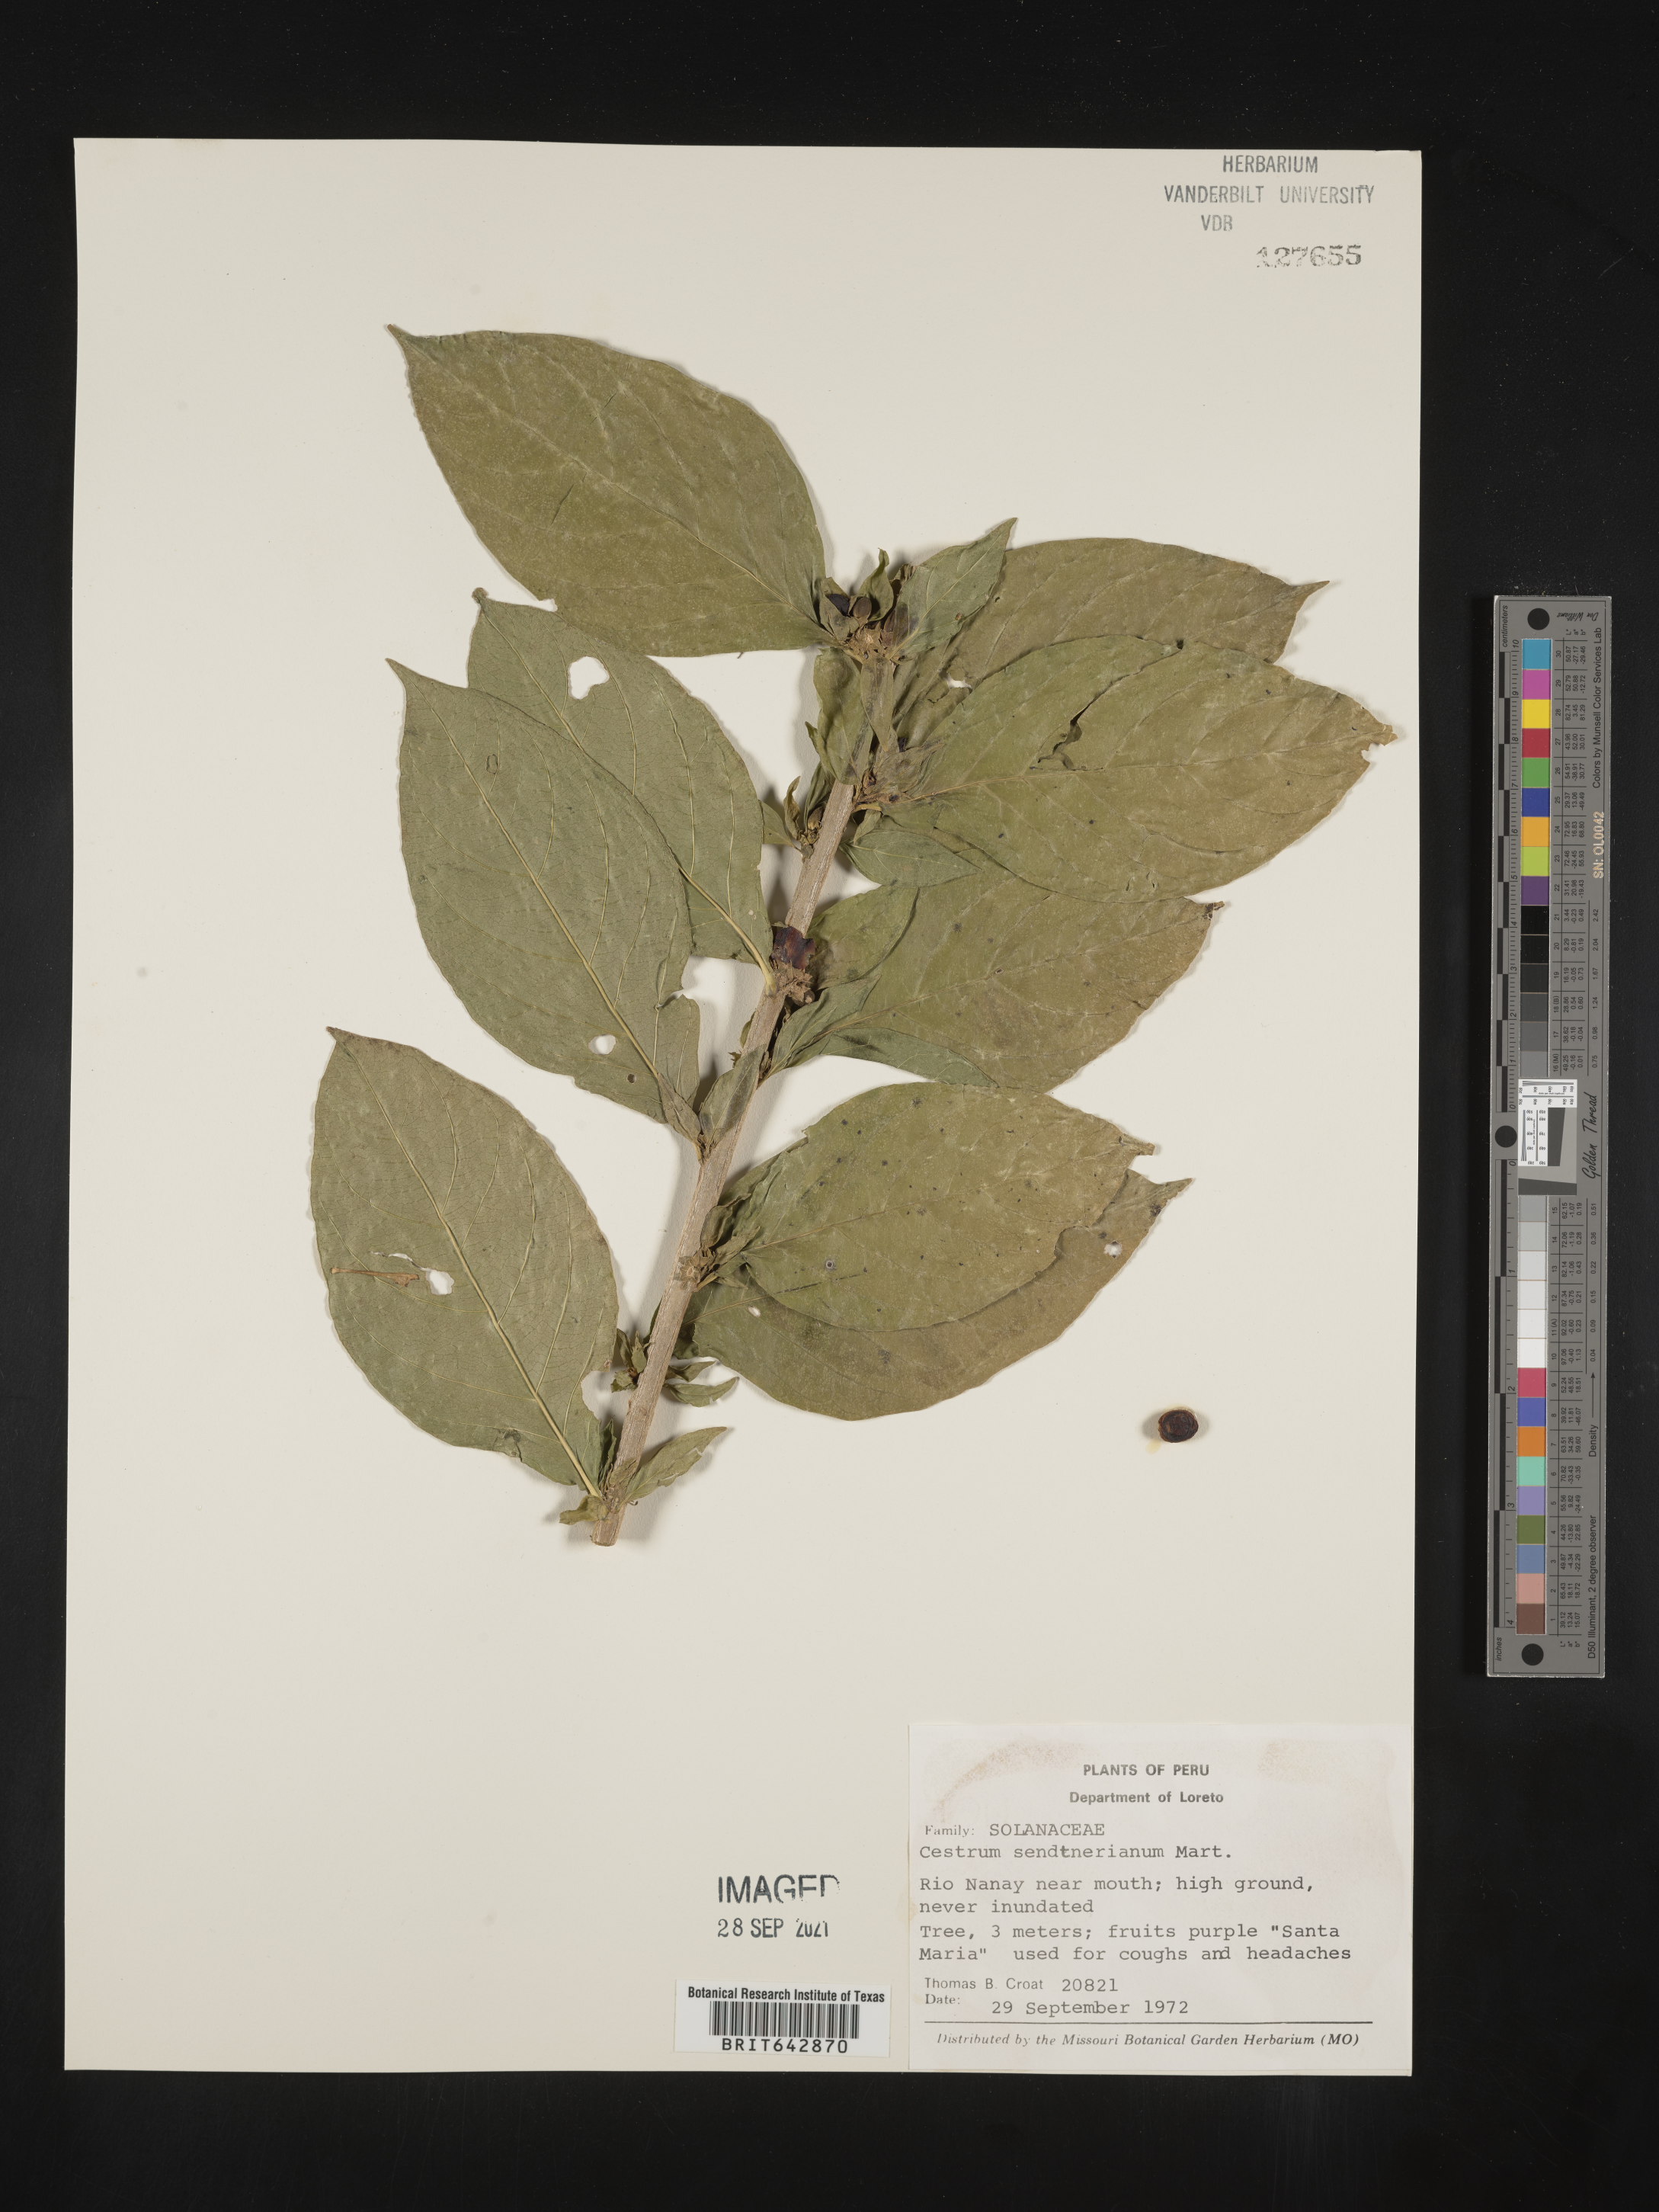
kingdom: Plantae
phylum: Tracheophyta
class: Magnoliopsida
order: Solanales
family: Solanaceae
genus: Cestrum
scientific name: Cestrum
